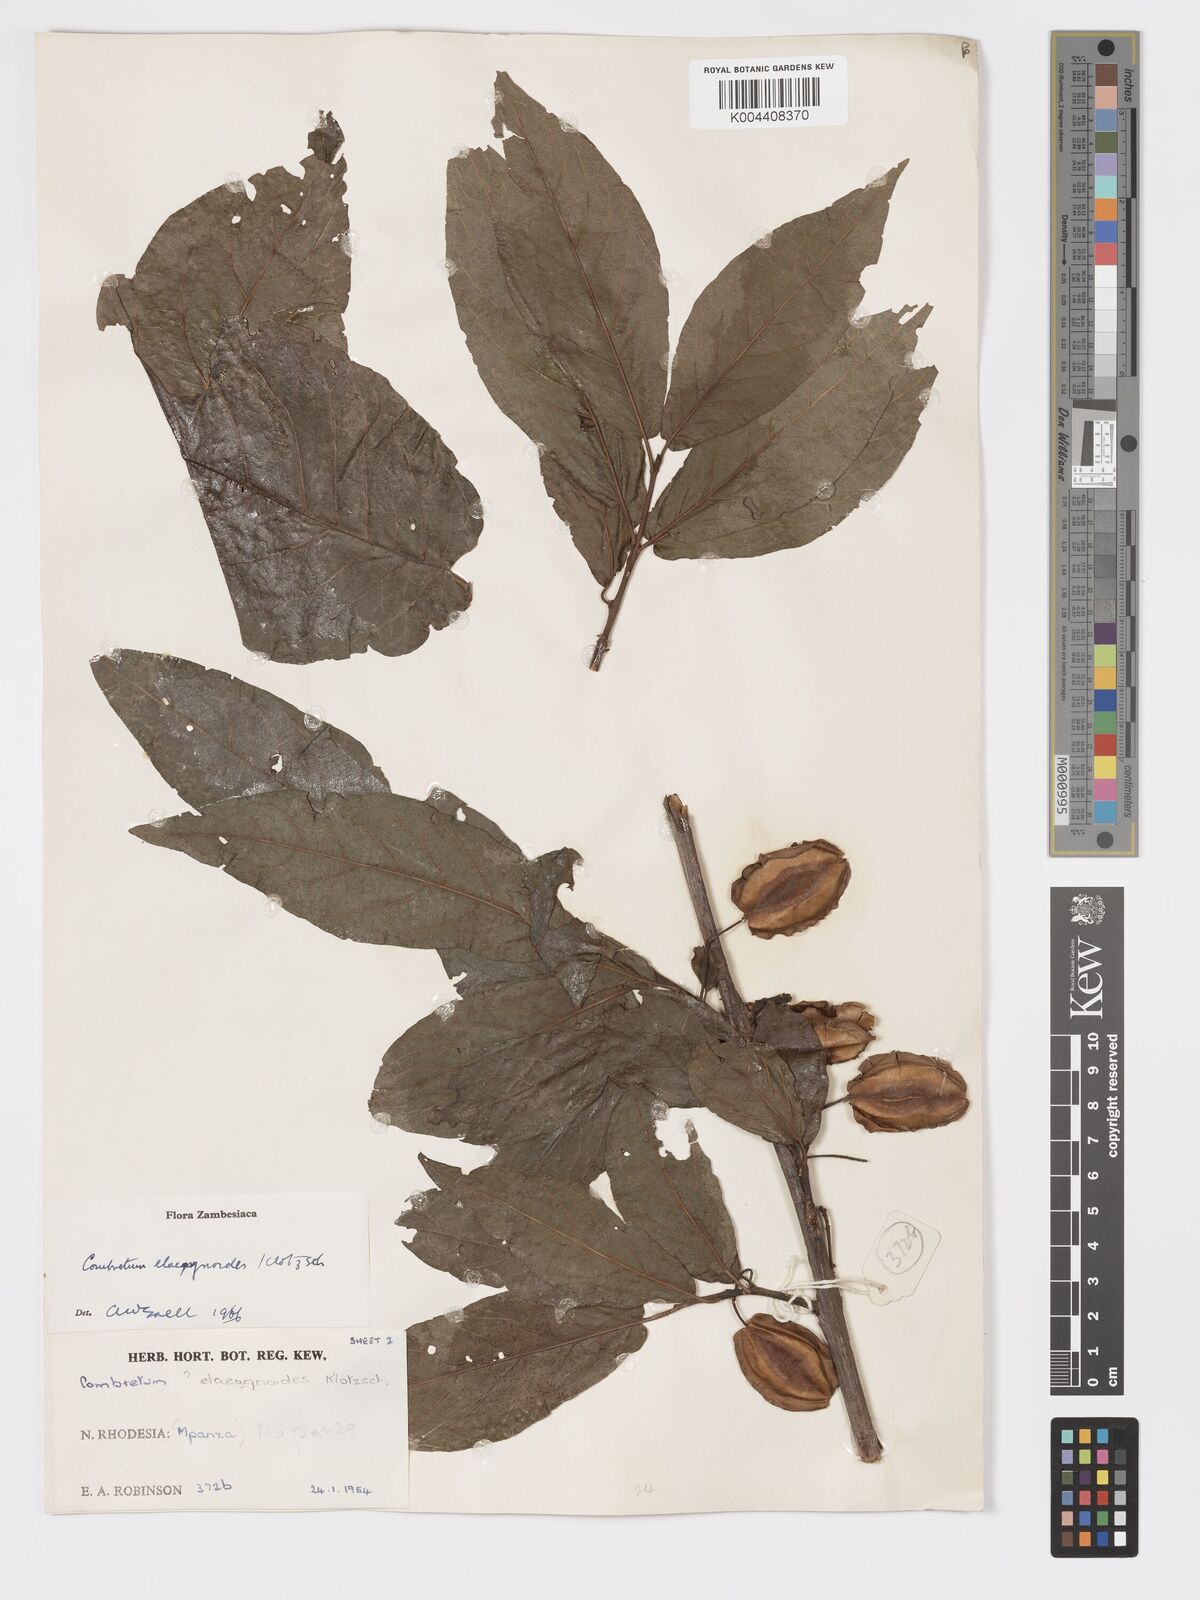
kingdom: Plantae
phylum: Tracheophyta
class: Magnoliopsida
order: Myrtales
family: Combretaceae
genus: Combretum
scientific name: Combretum elaeagnoides
